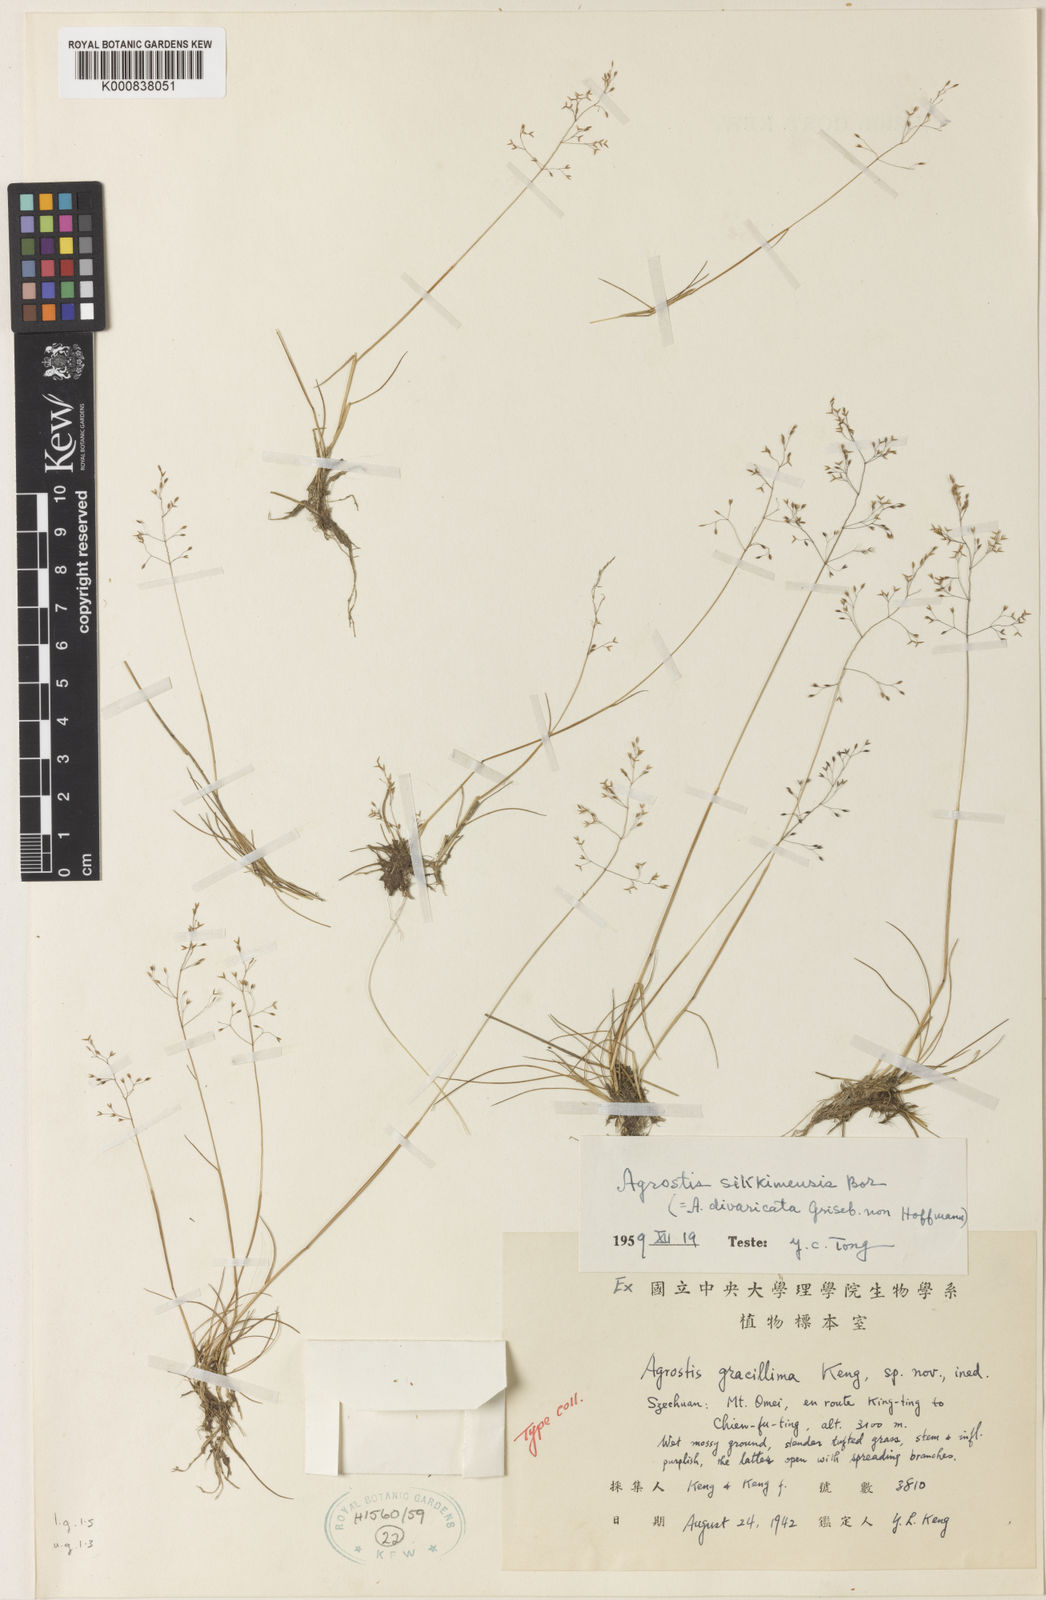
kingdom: Plantae
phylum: Tracheophyta
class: Liliopsida
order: Poales
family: Poaceae
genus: Agrostis
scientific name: Agrostis nervosa
